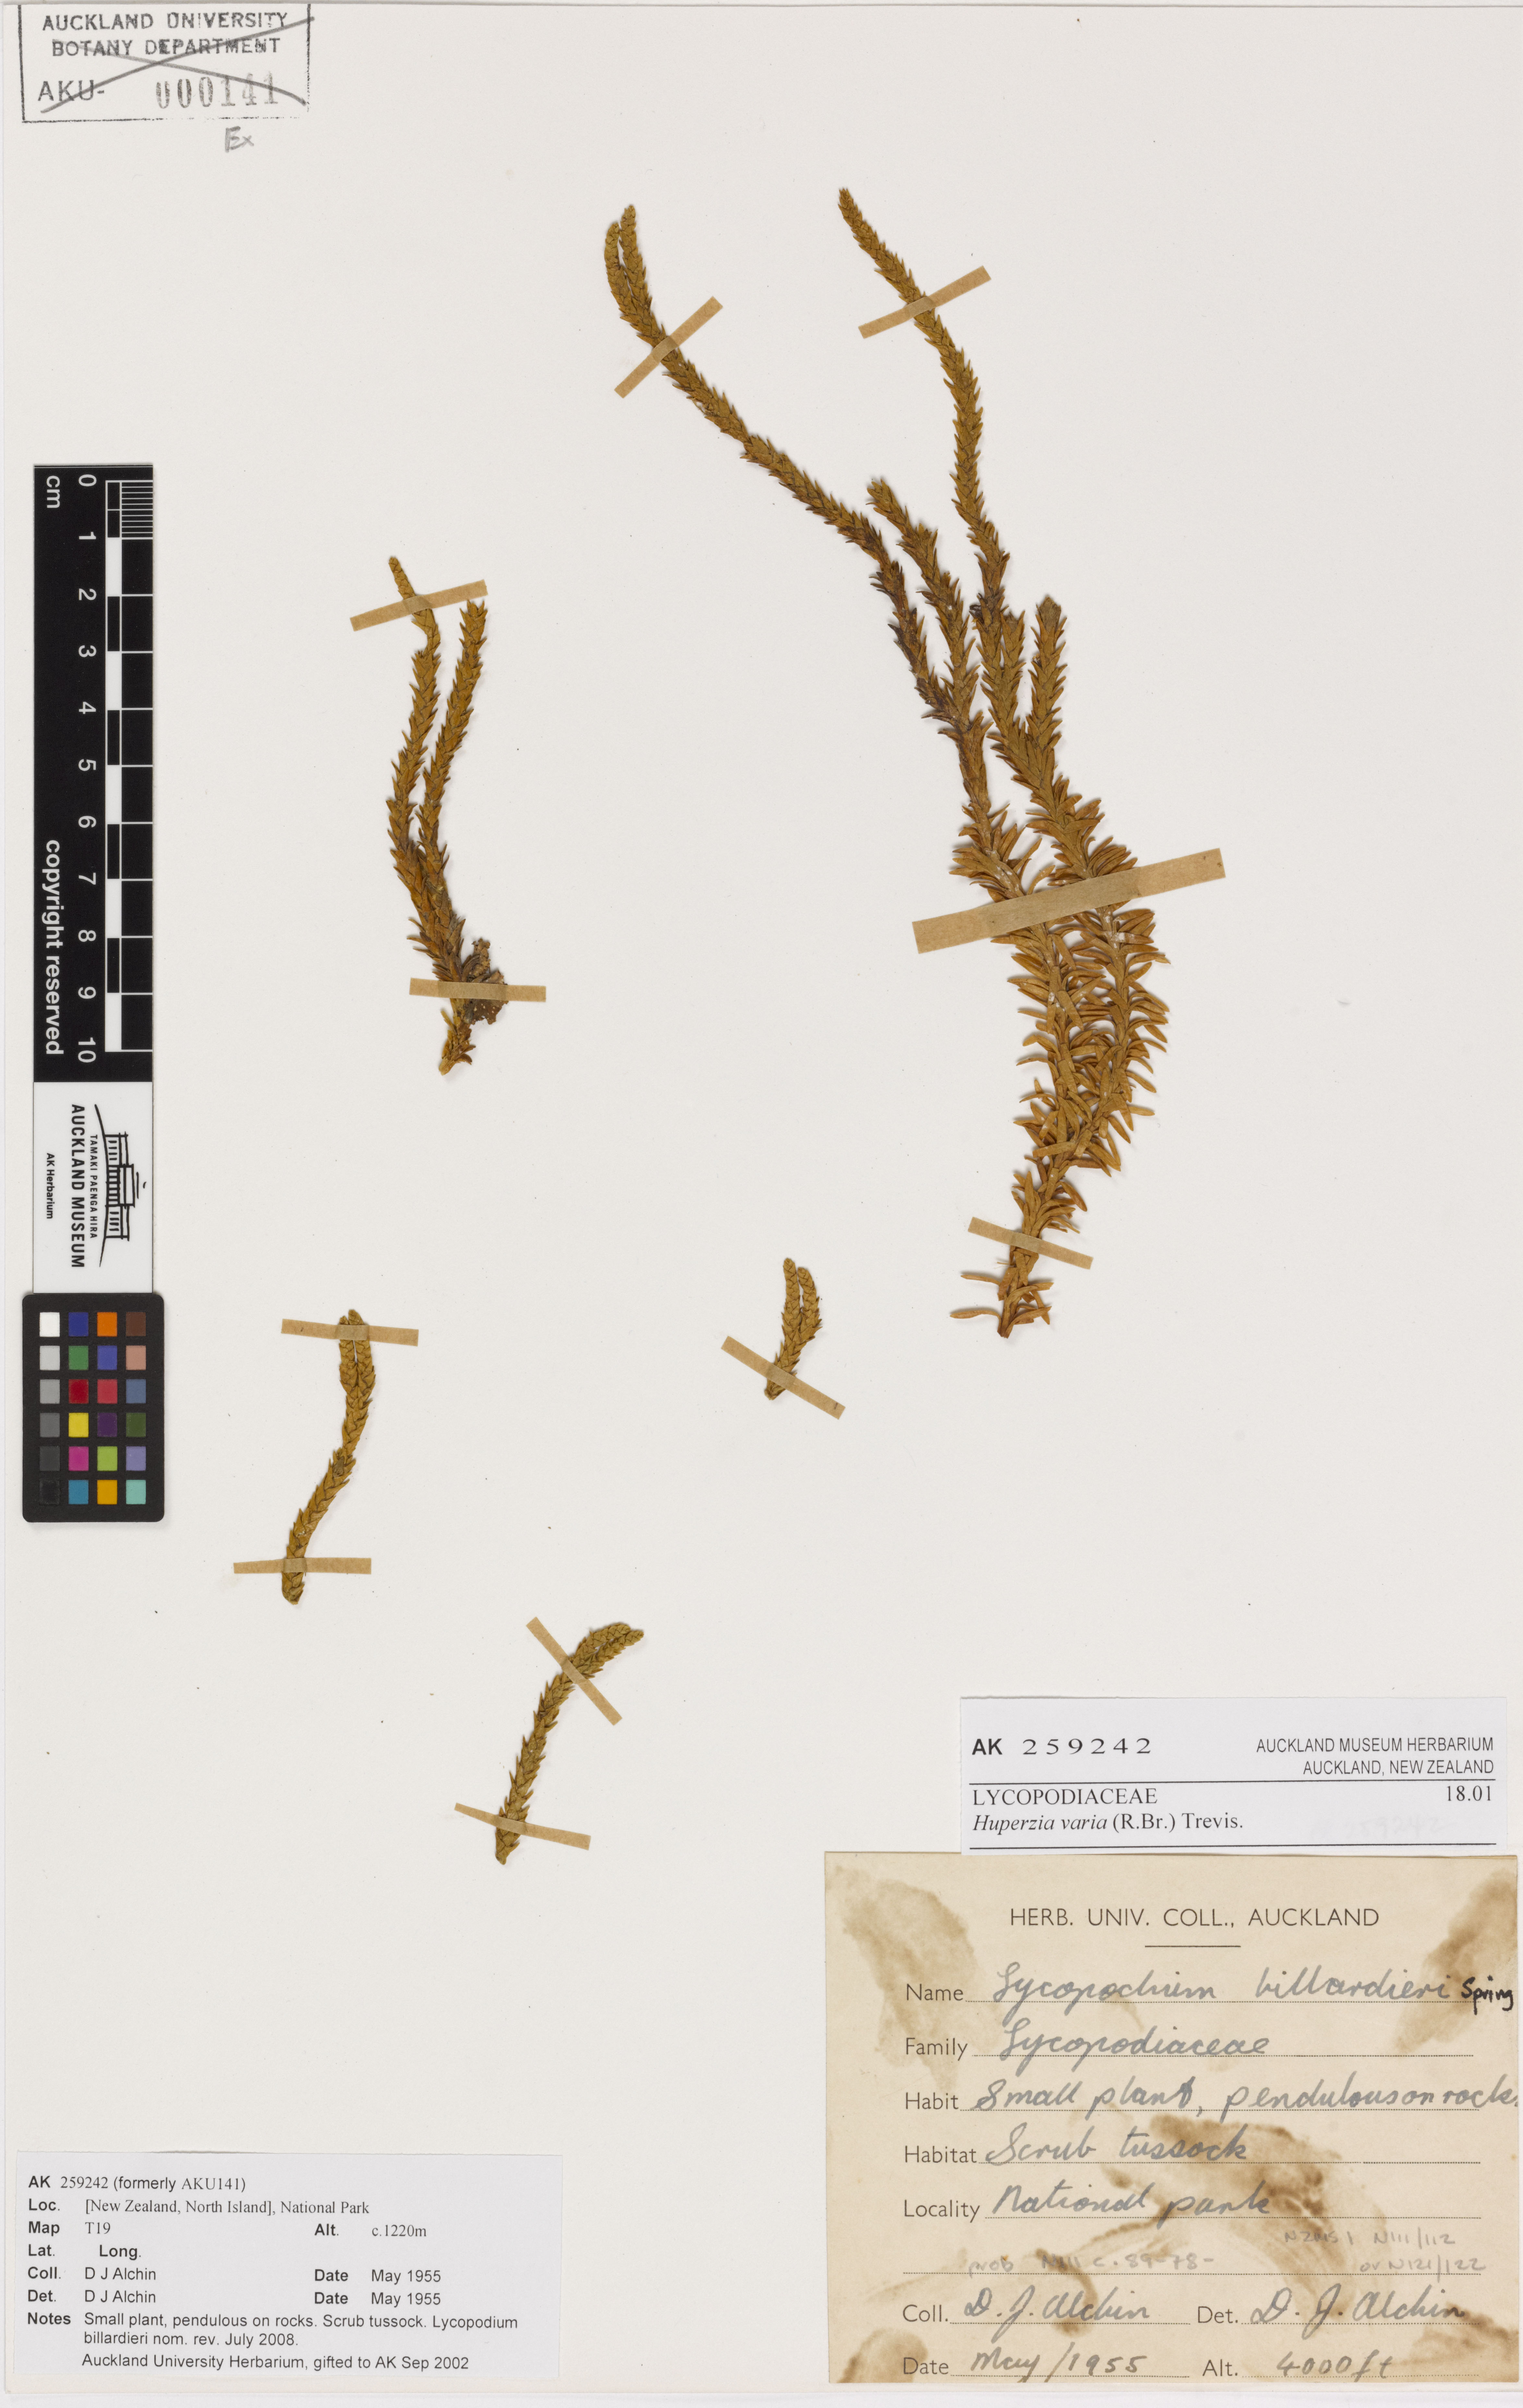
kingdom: Plantae
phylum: Tracheophyta
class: Lycopodiopsida
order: Lycopodiales
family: Lycopodiaceae
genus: Phlegmariurus
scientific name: Phlegmariurus varius
